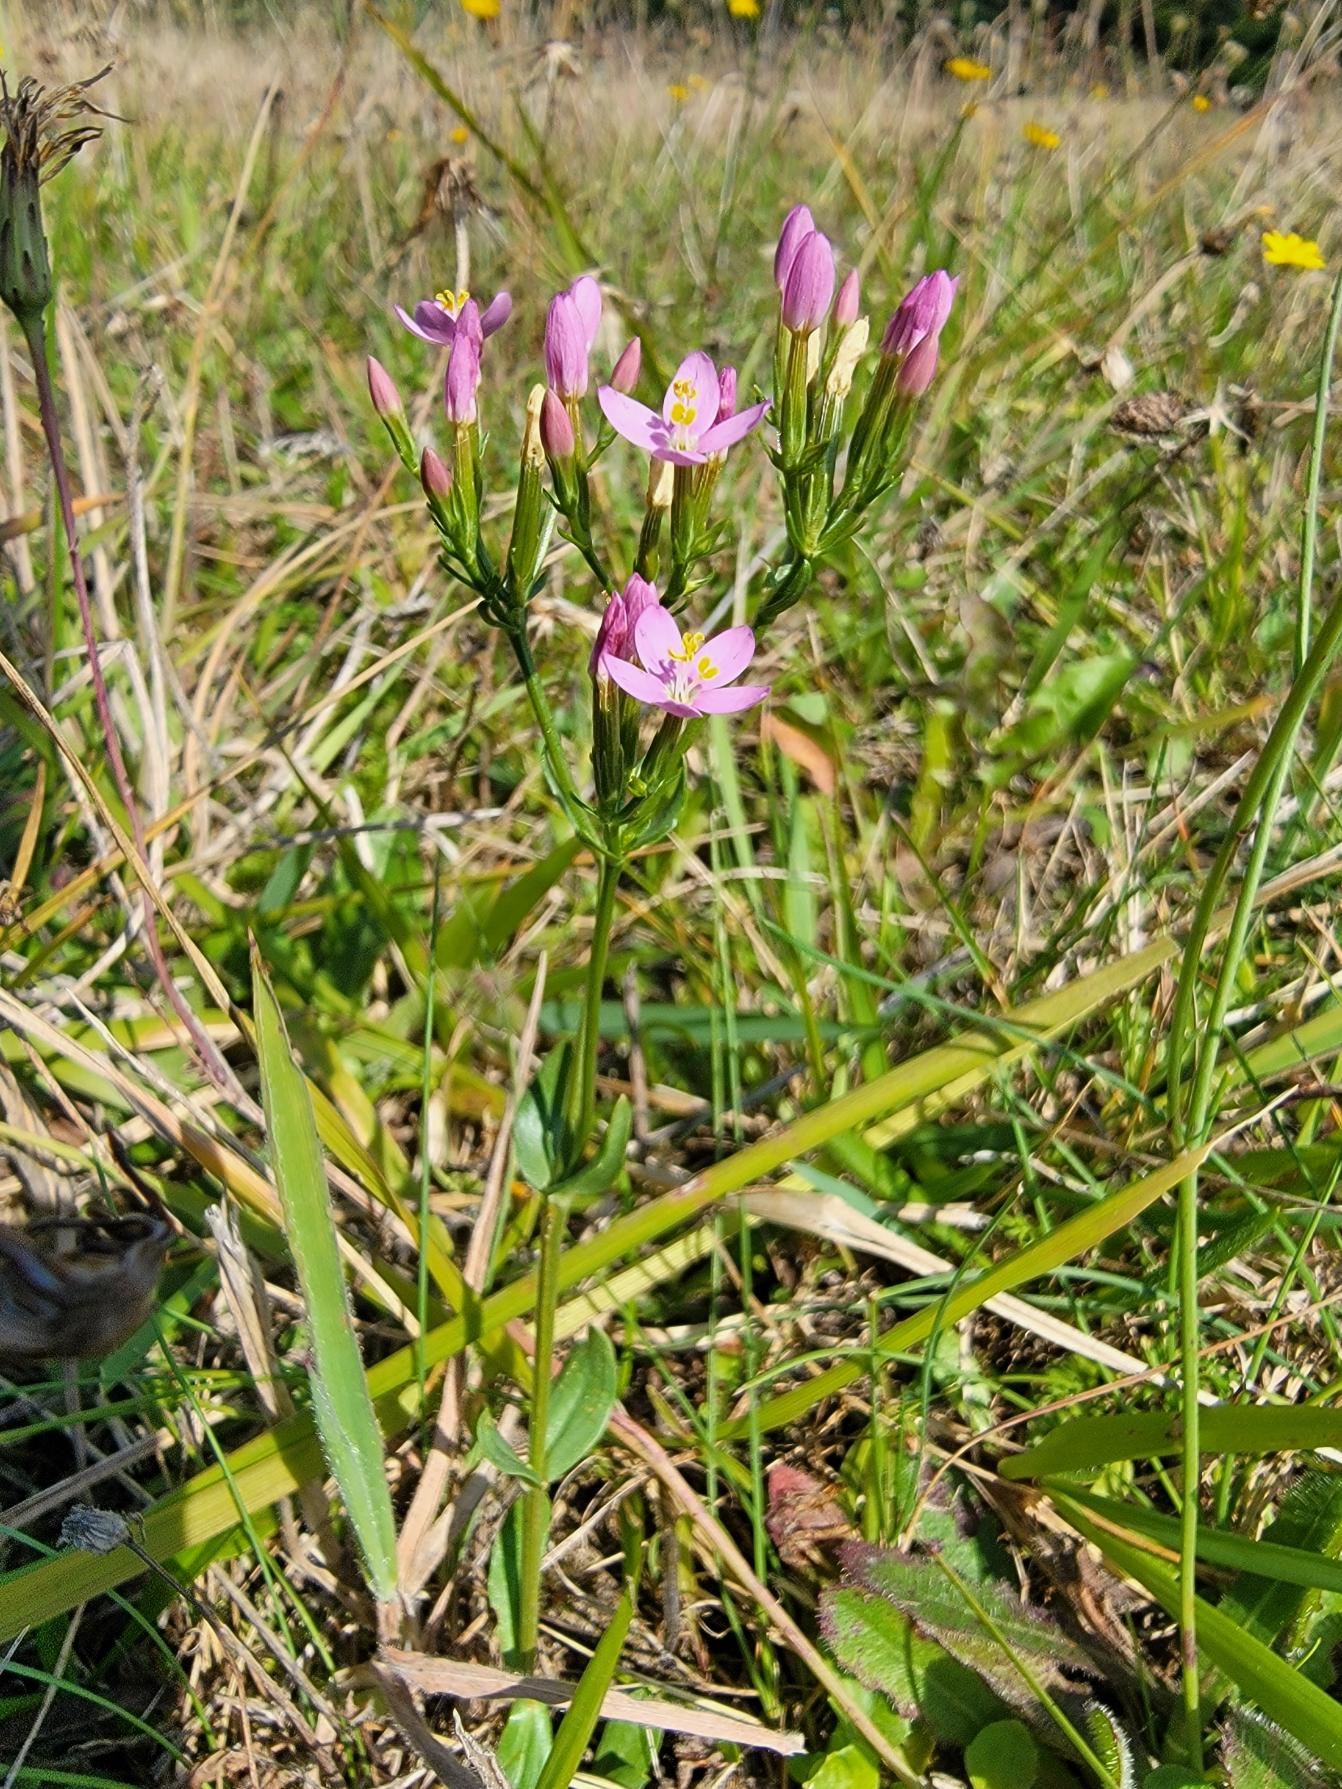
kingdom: Plantae
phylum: Tracheophyta
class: Magnoliopsida
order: Gentianales
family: Gentianaceae
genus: Centaurium
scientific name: Centaurium erythraea
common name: Mark-tusindgylden
